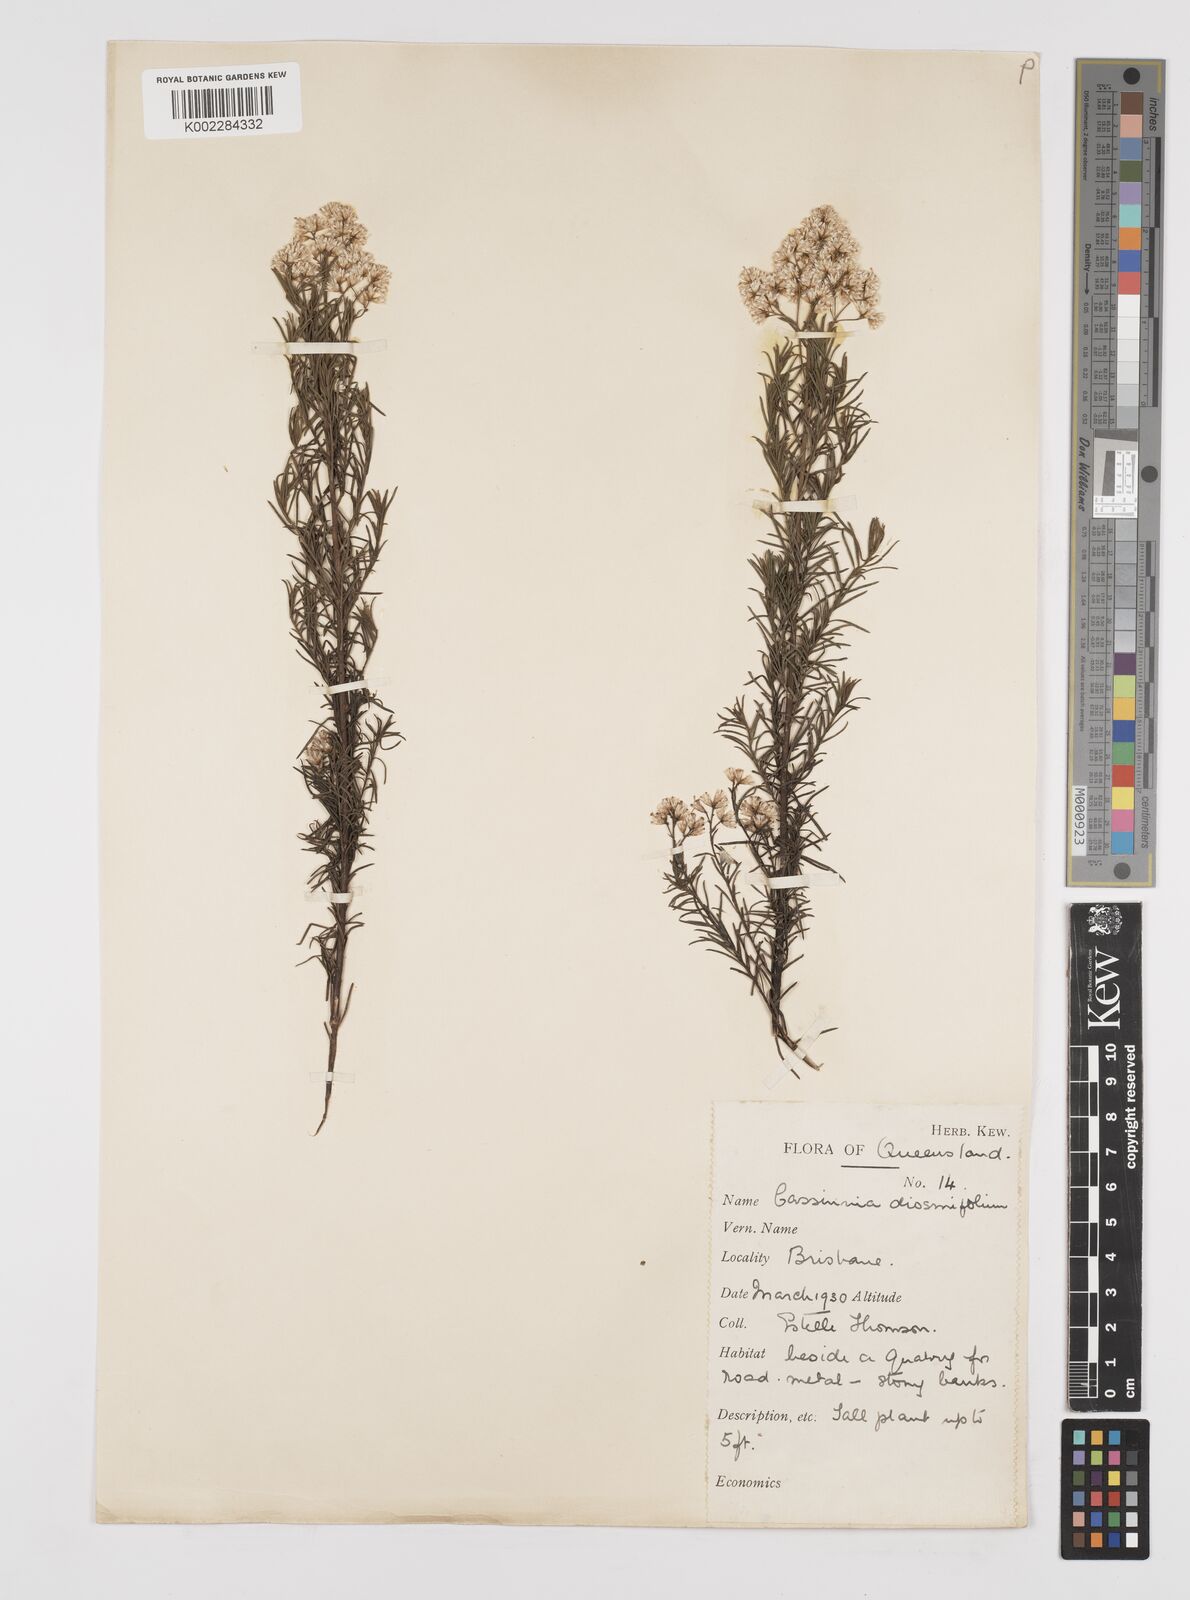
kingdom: Plantae
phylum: Tracheophyta
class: Magnoliopsida
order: Asterales
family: Asteraceae
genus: Cassinia
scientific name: Cassinia quinquefaria
